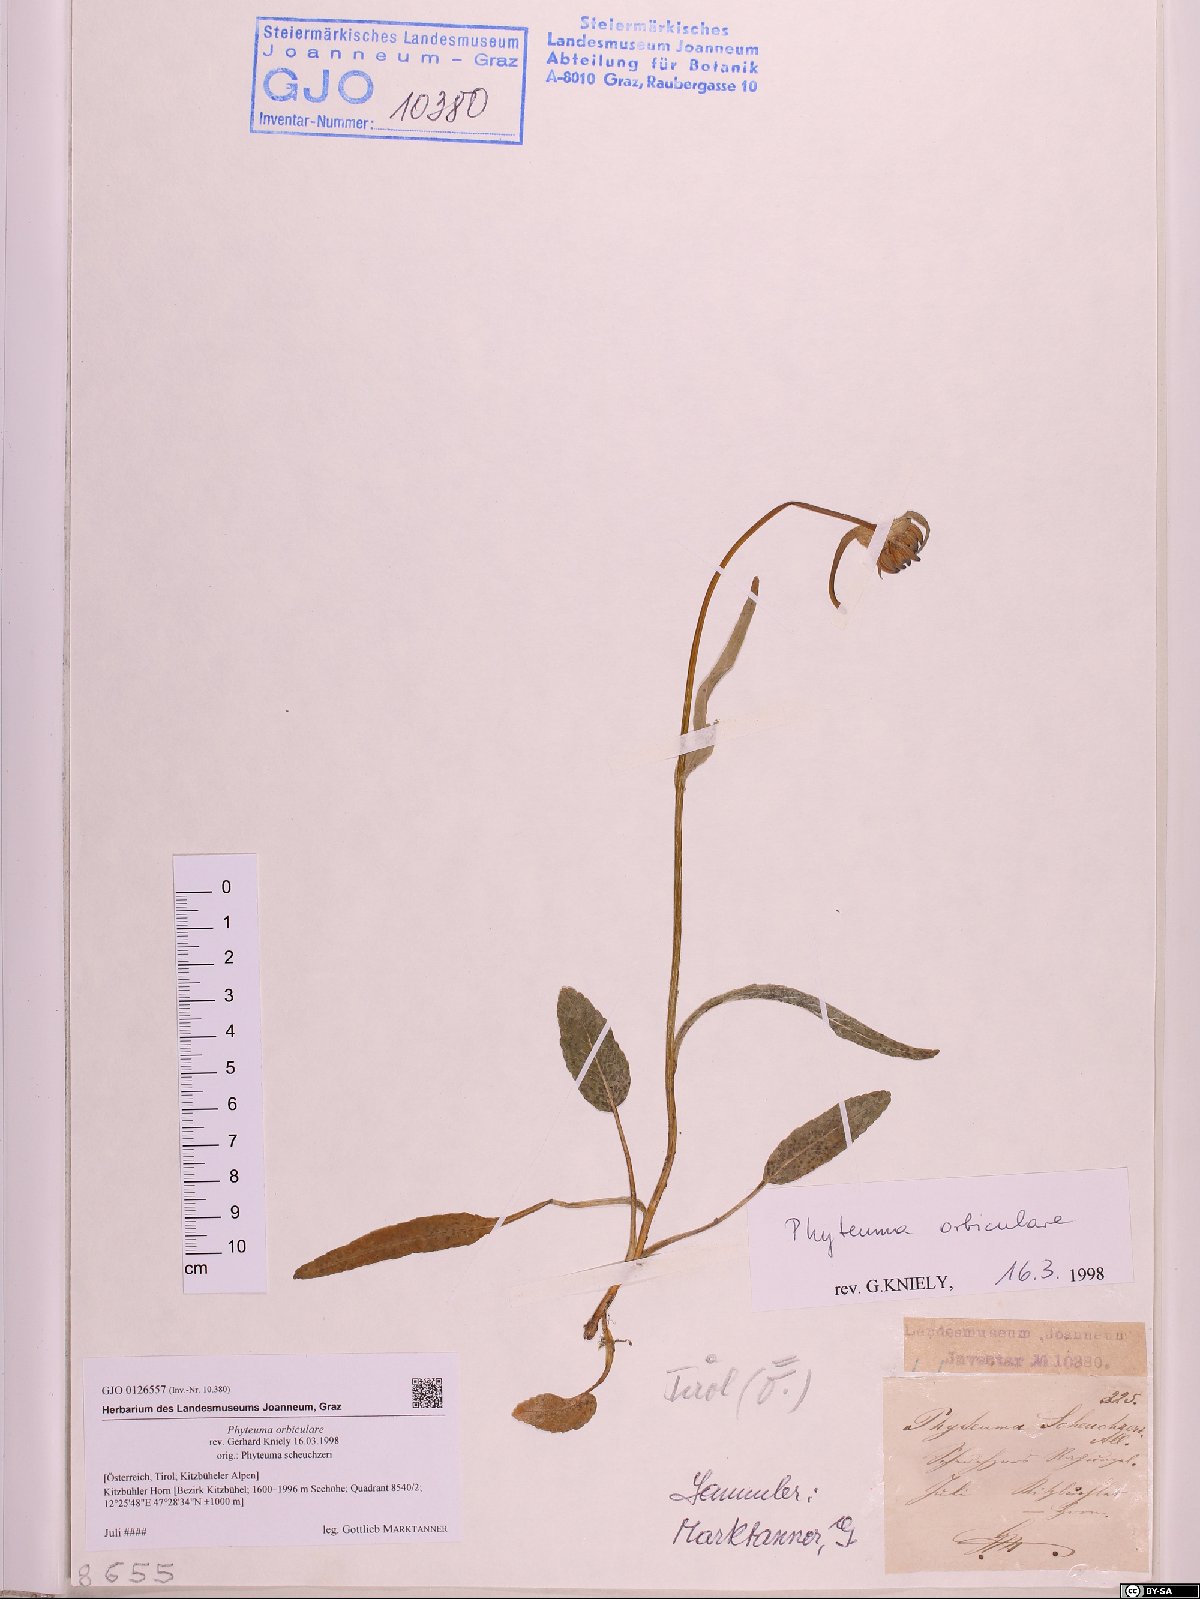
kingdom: Plantae
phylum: Tracheophyta
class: Magnoliopsida
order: Asterales
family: Campanulaceae
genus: Phyteuma
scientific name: Phyteuma orbiculare
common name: Round-headed rampion
